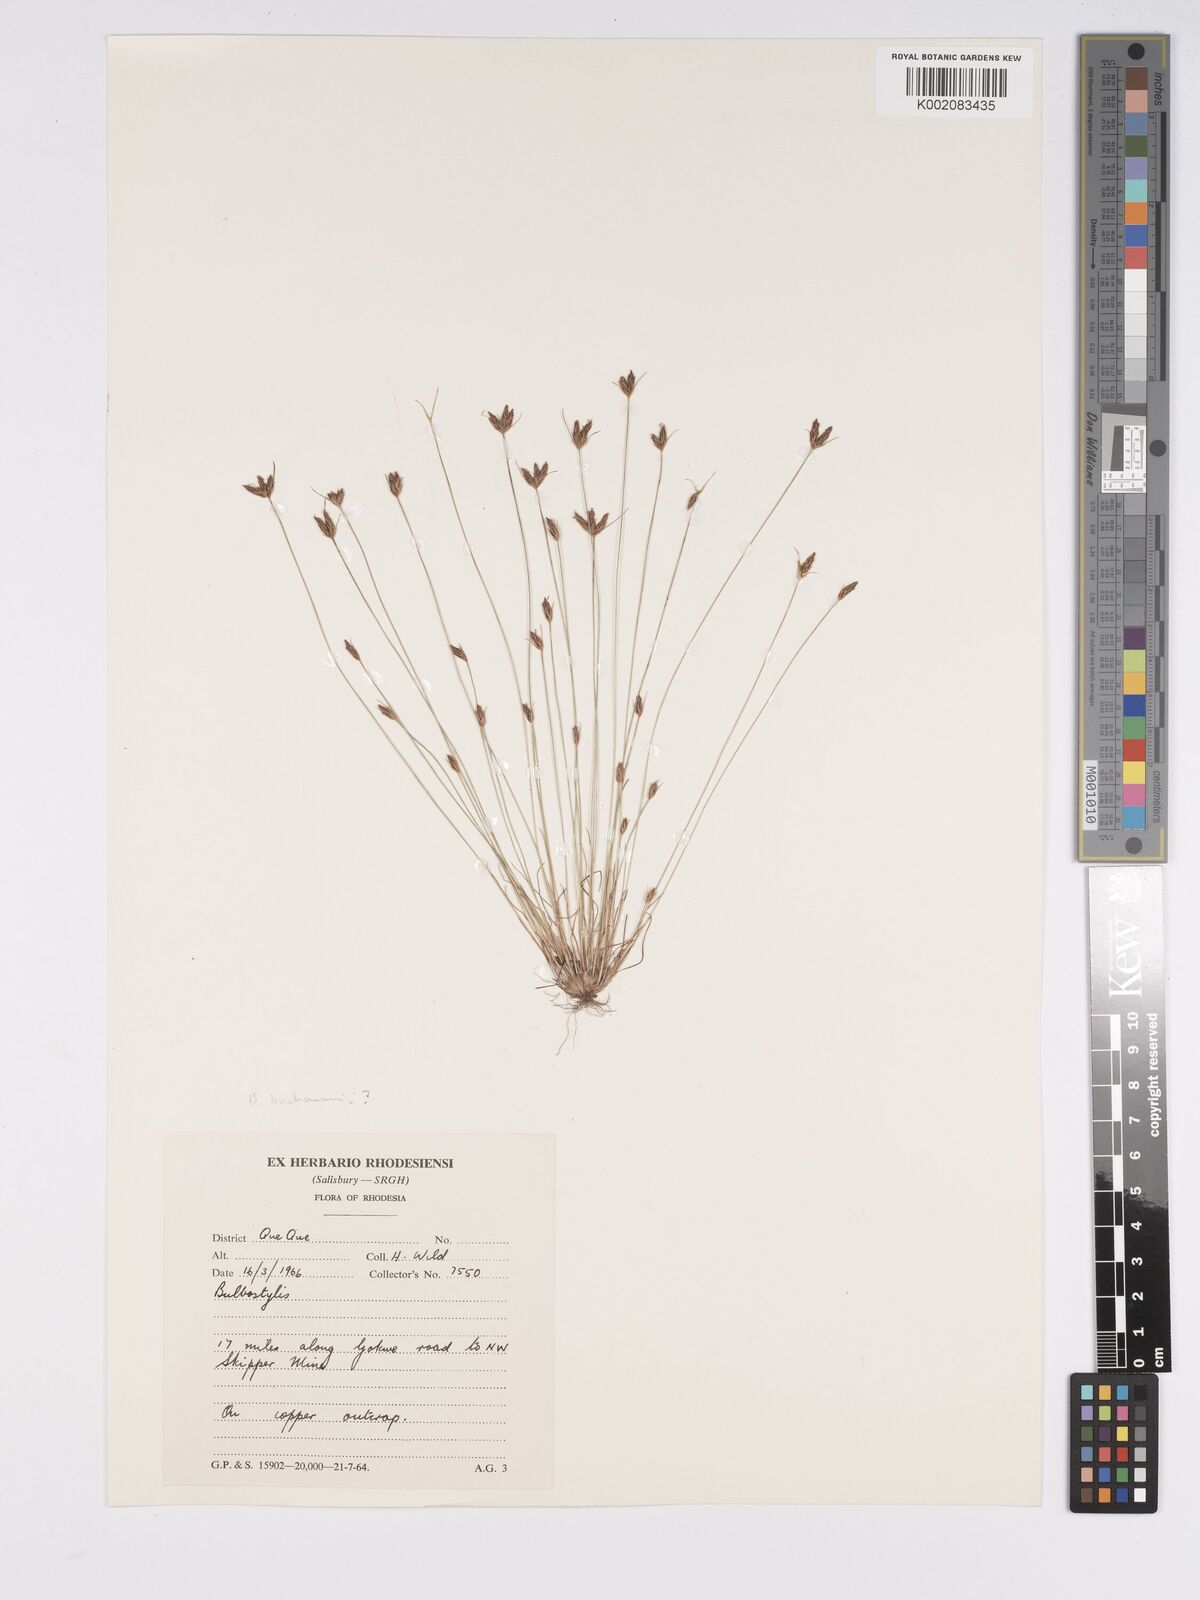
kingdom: Plantae
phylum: Tracheophyta
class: Liliopsida
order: Poales
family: Cyperaceae
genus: Bulbostylis
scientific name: Bulbostylis buchananii
